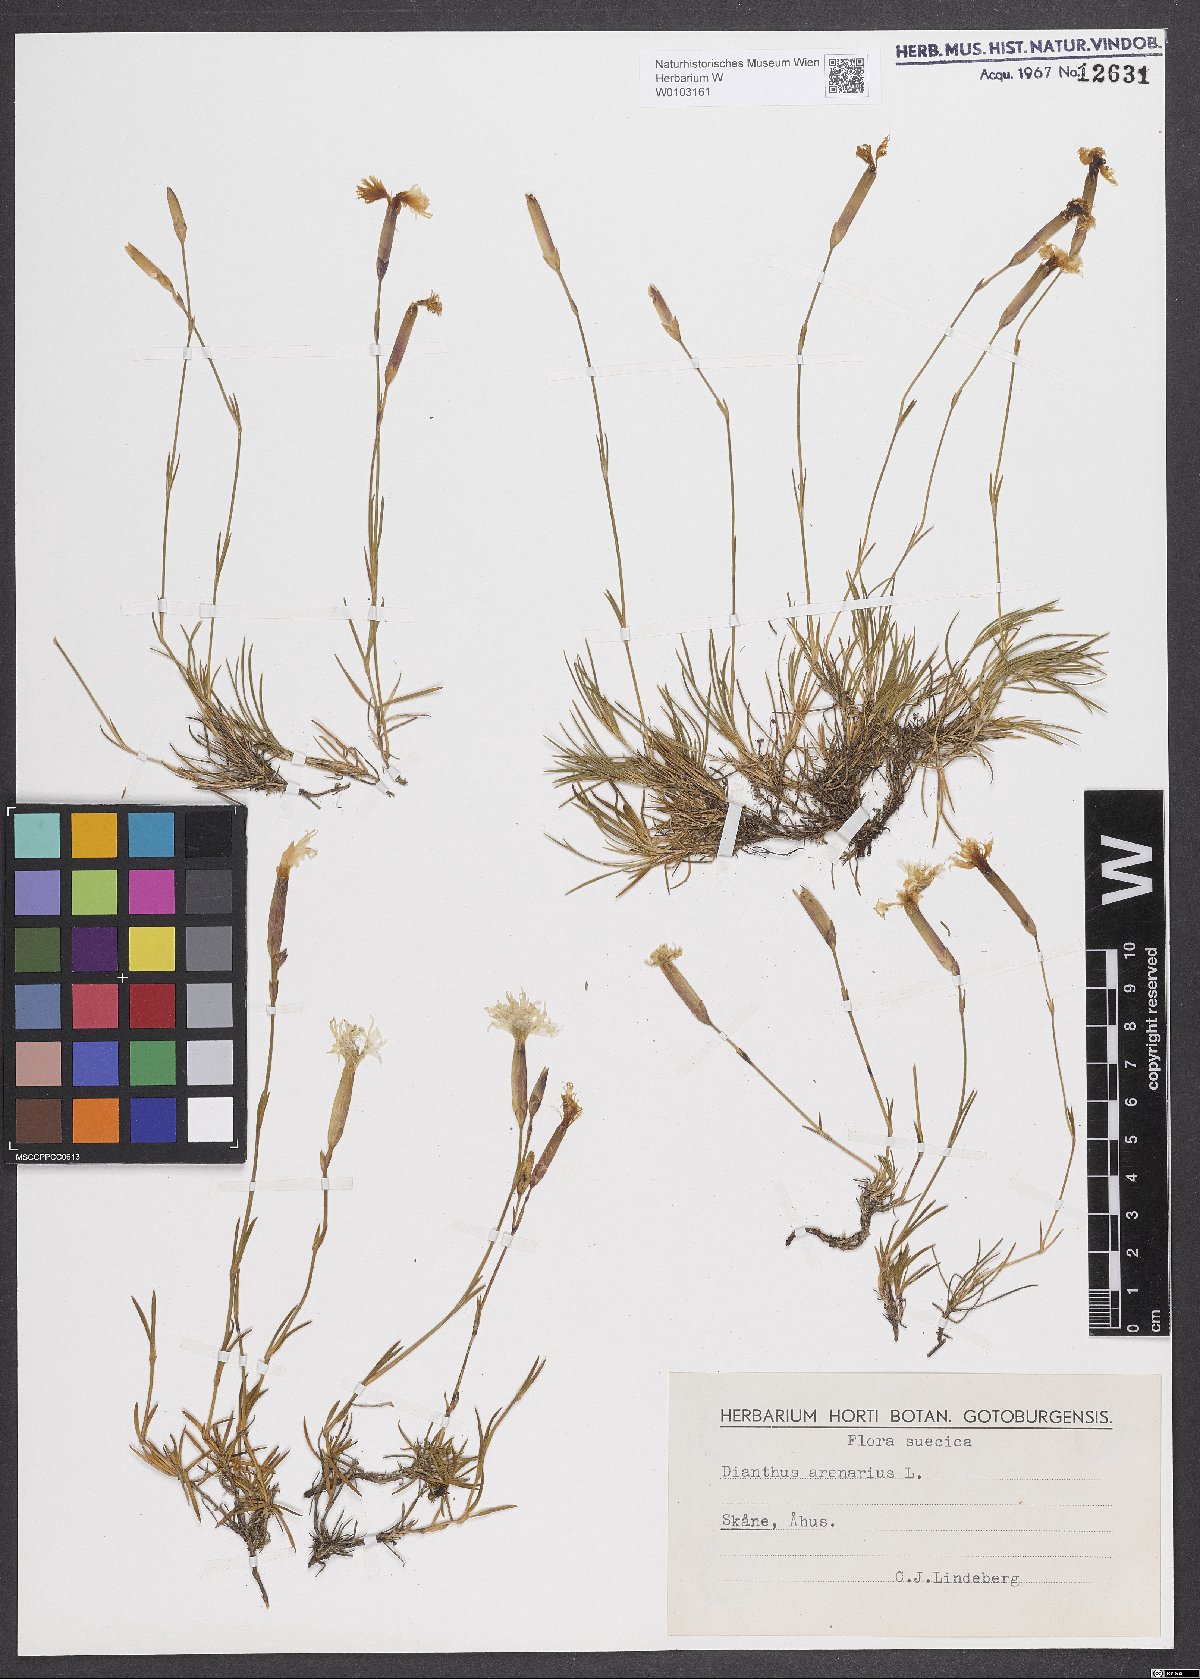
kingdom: Plantae
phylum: Tracheophyta
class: Magnoliopsida
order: Caryophyllales
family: Caryophyllaceae
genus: Dianthus
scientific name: Dianthus arenarius
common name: Stone pink
